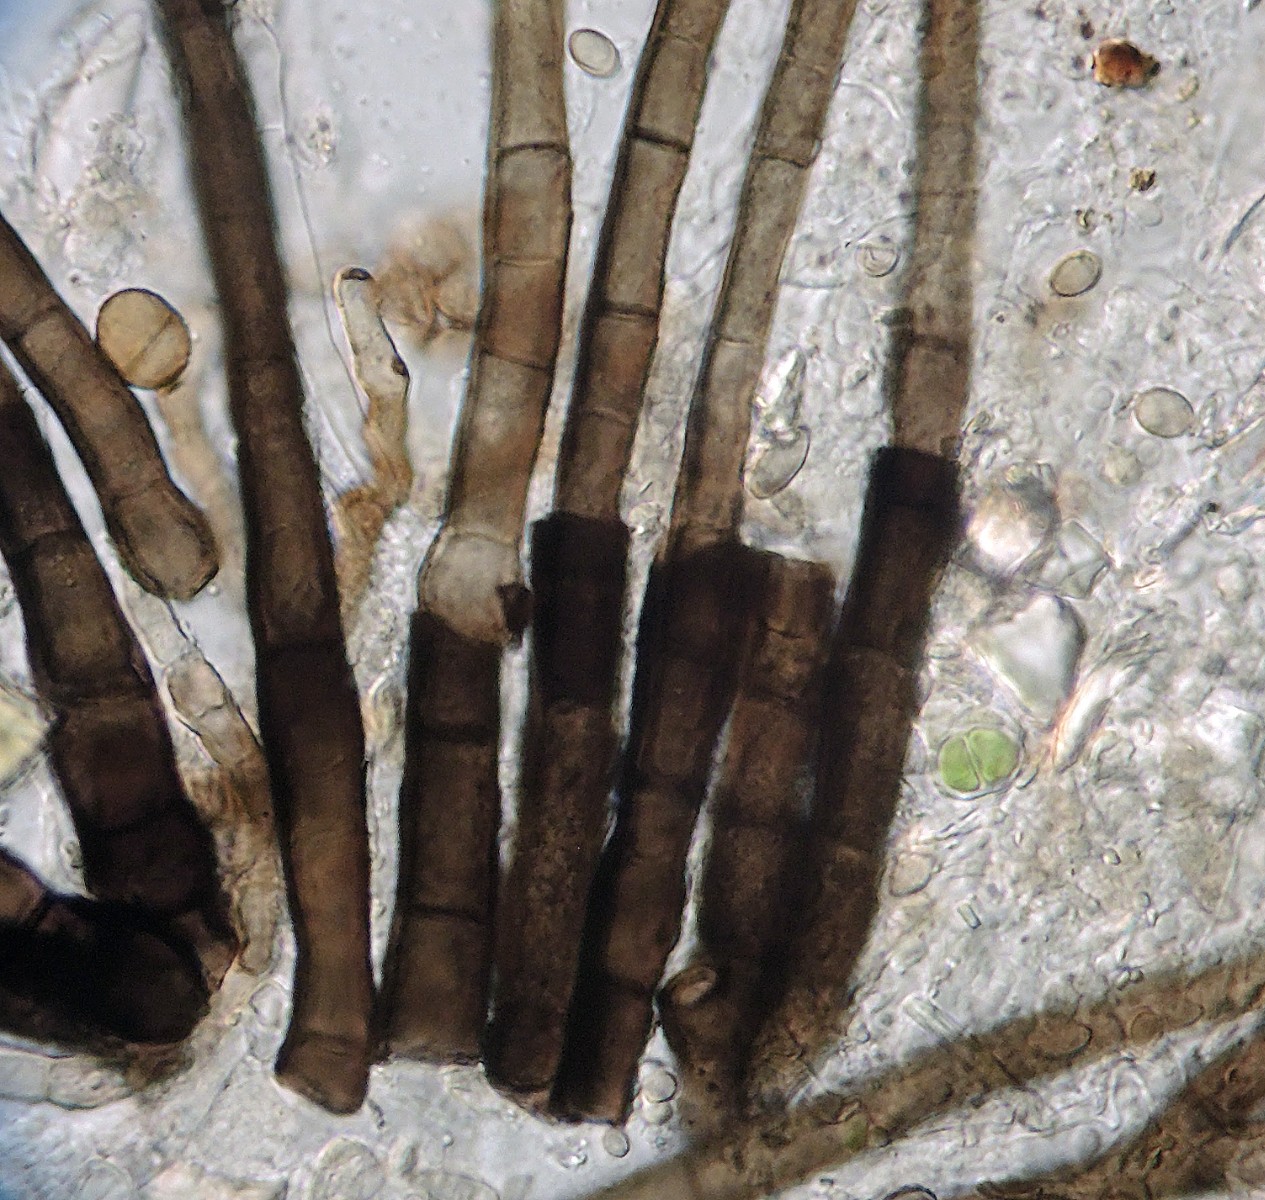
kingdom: Fungi
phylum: Ascomycota
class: Dothideomycetes
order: Capnodiales
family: Cladosporiaceae
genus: Cladosporium
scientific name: Cladosporium
